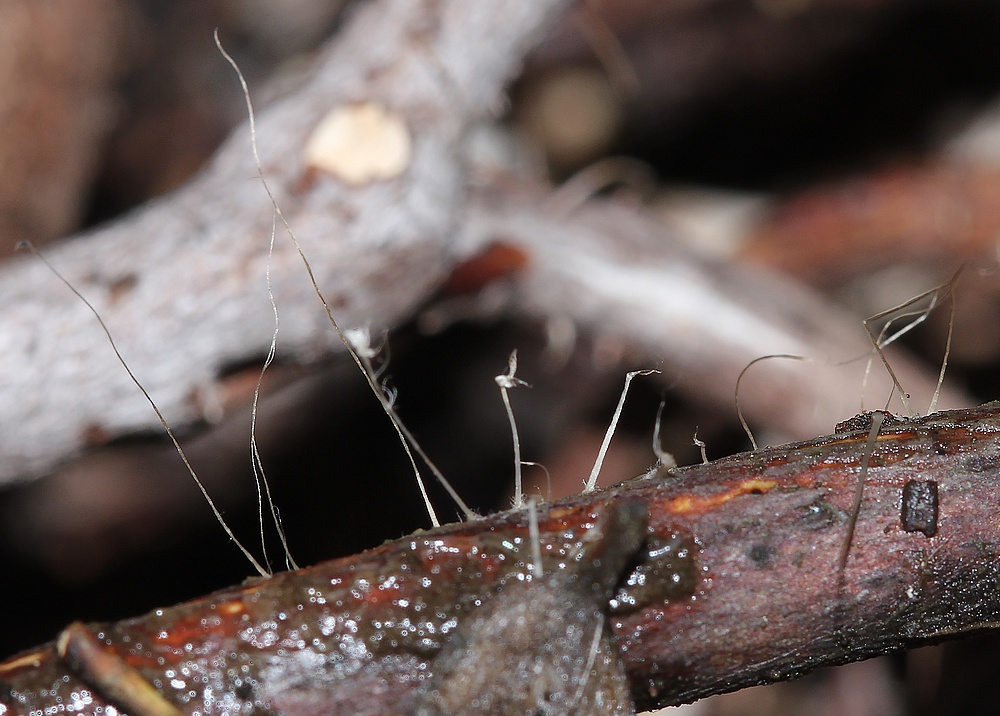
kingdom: Fungi
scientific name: Fungi
